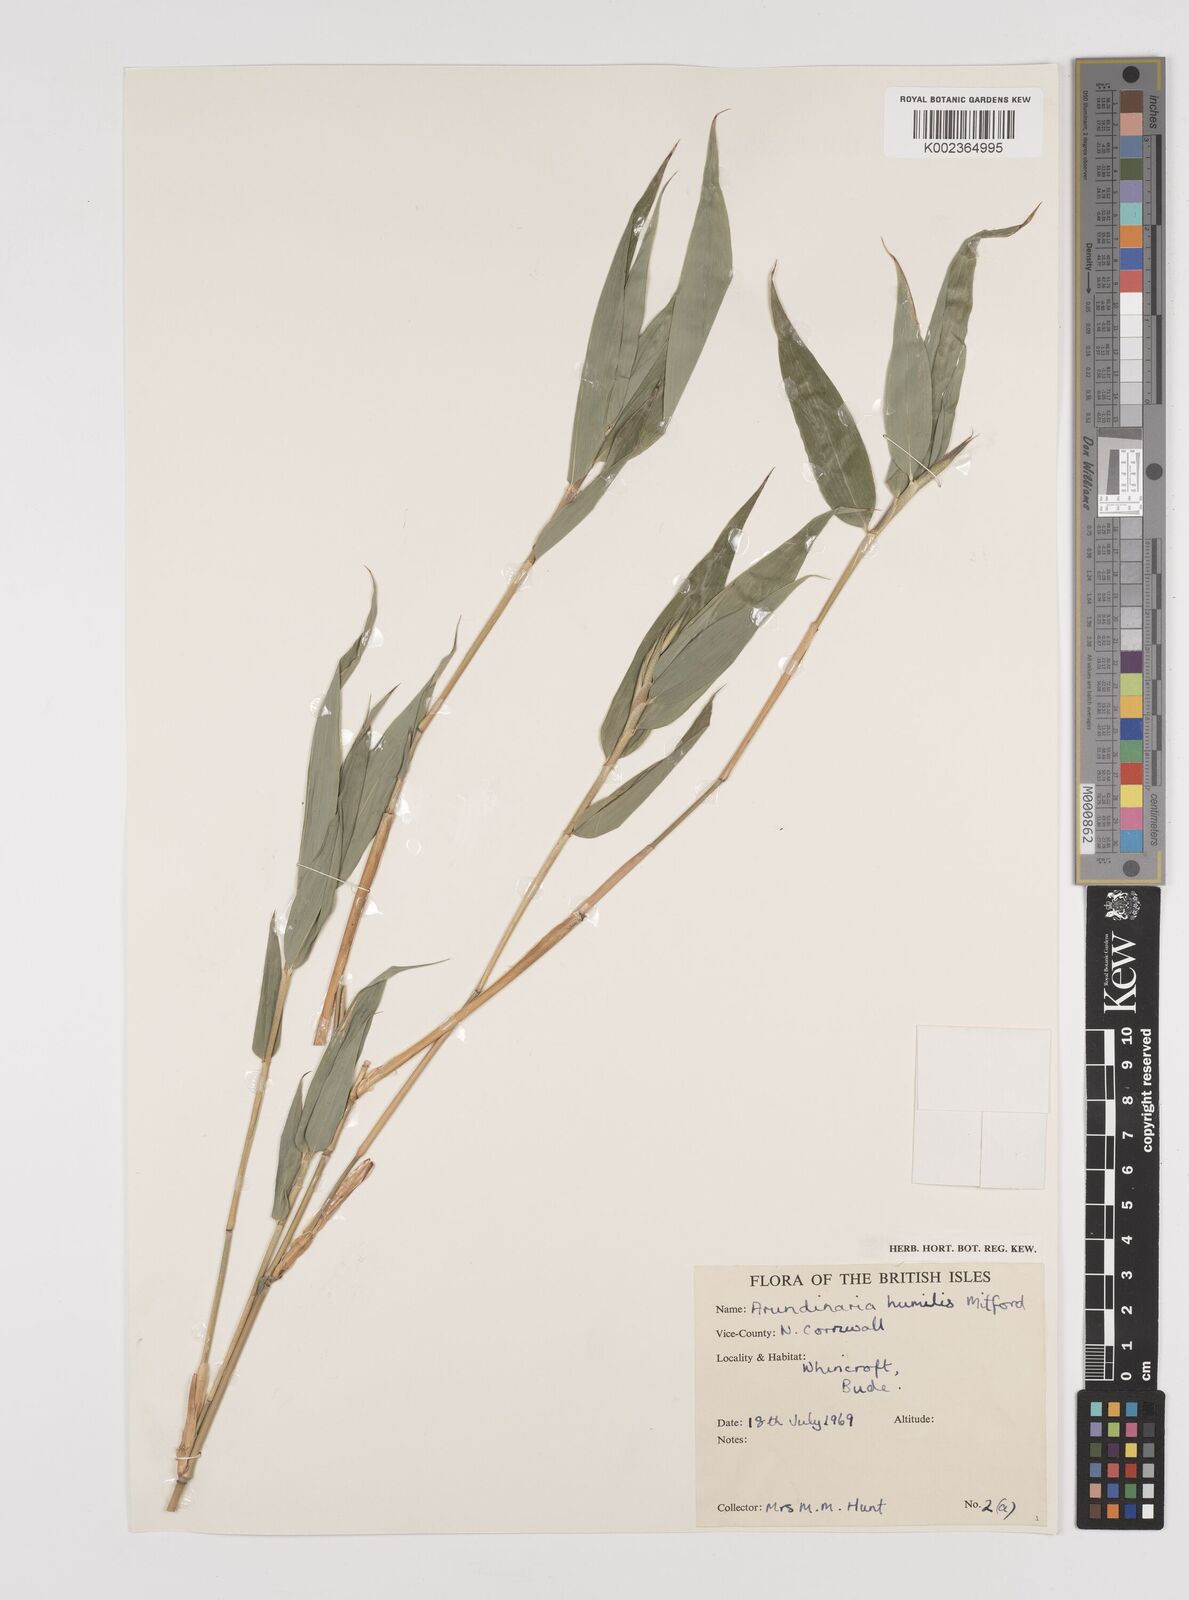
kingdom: Plantae
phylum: Tracheophyta
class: Liliopsida
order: Poales
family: Poaceae
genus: Pseudosasa
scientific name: Pseudosasa humilis
